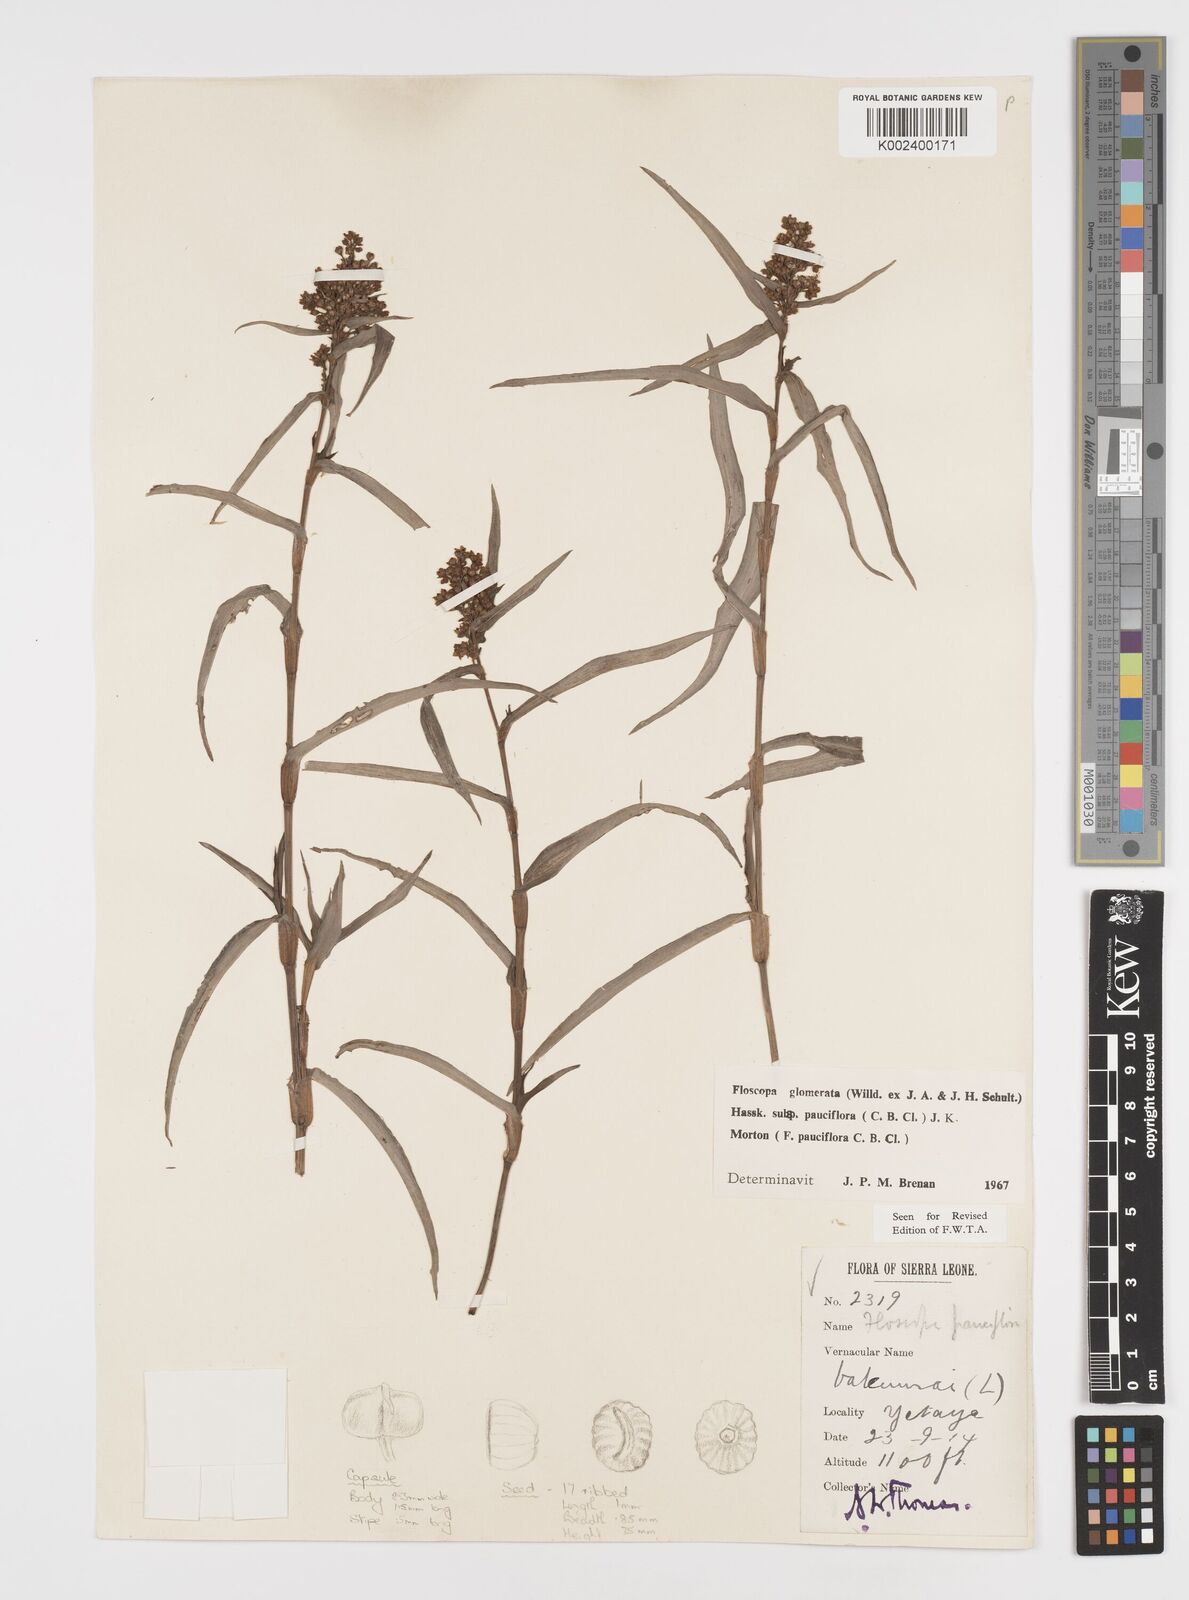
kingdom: Plantae
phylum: Tracheophyta
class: Liliopsida
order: Commelinales
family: Commelinaceae
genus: Floscopa
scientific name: Floscopa glomerata
